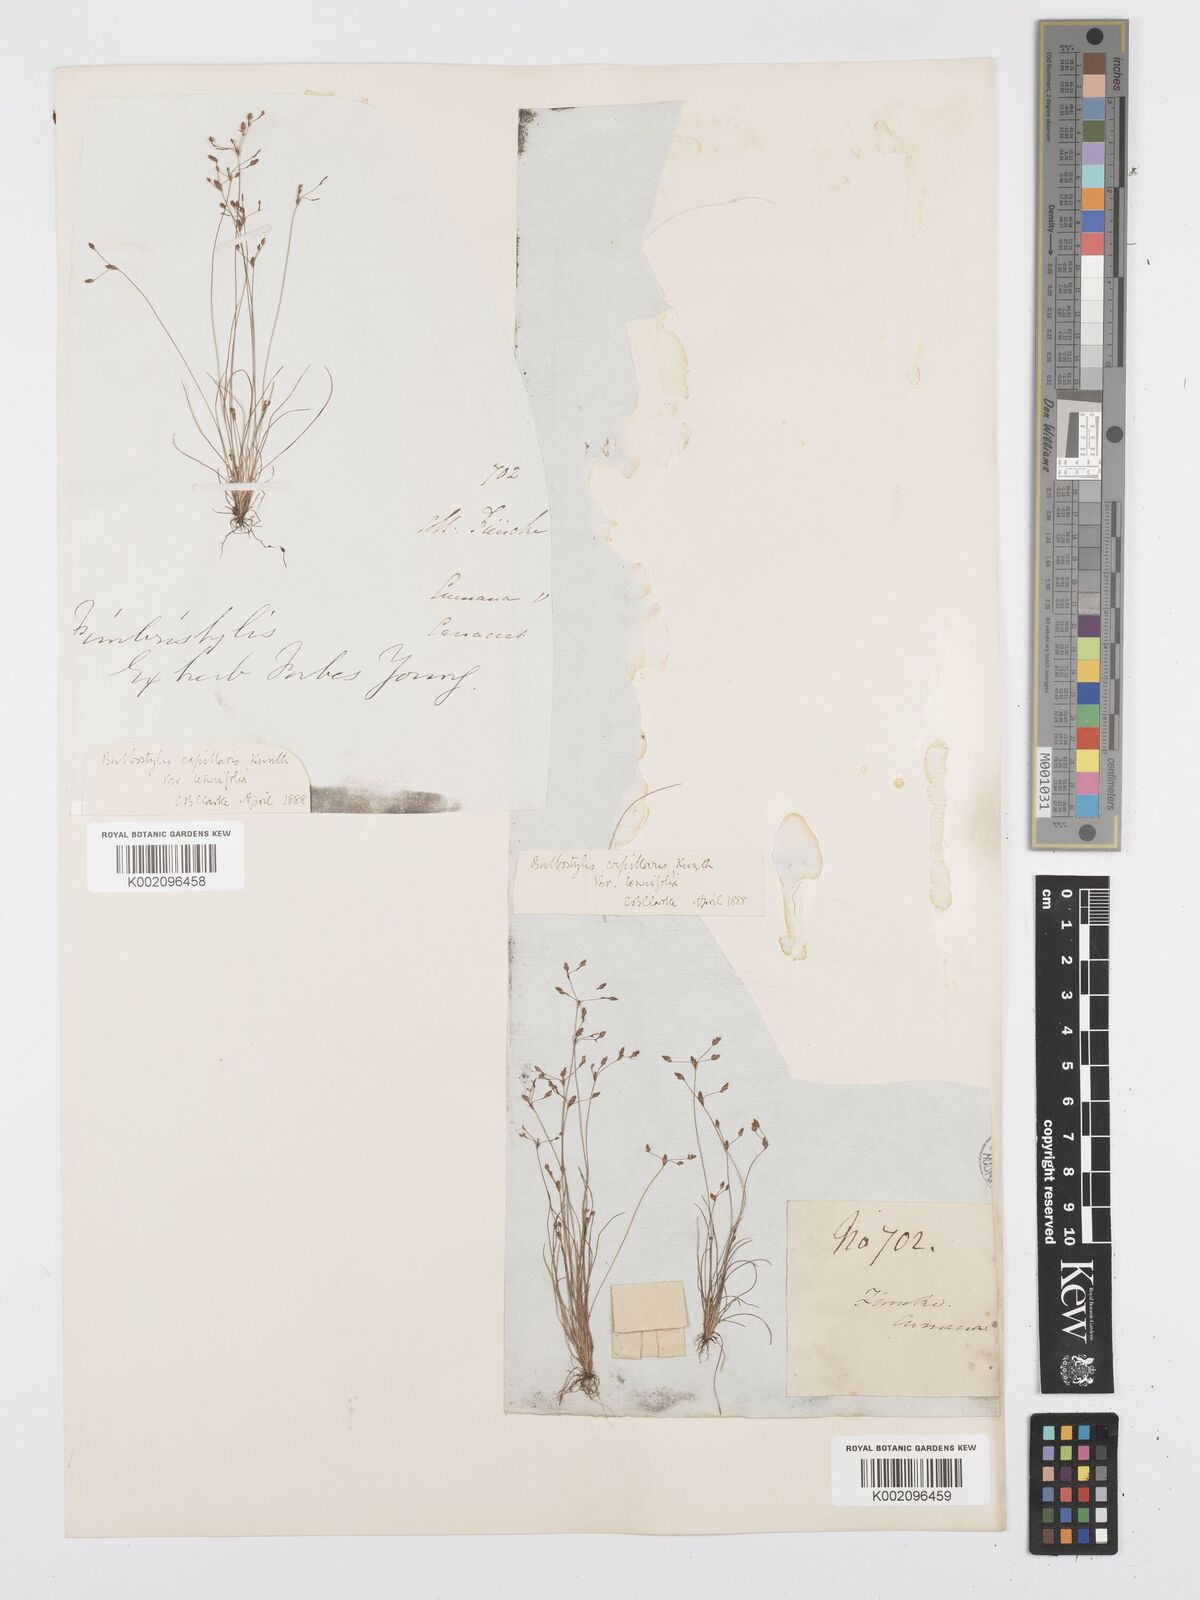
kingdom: Plantae
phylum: Tracheophyta
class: Liliopsida
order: Poales
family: Cyperaceae
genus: Bulbostylis
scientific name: Bulbostylis tenuifolia
